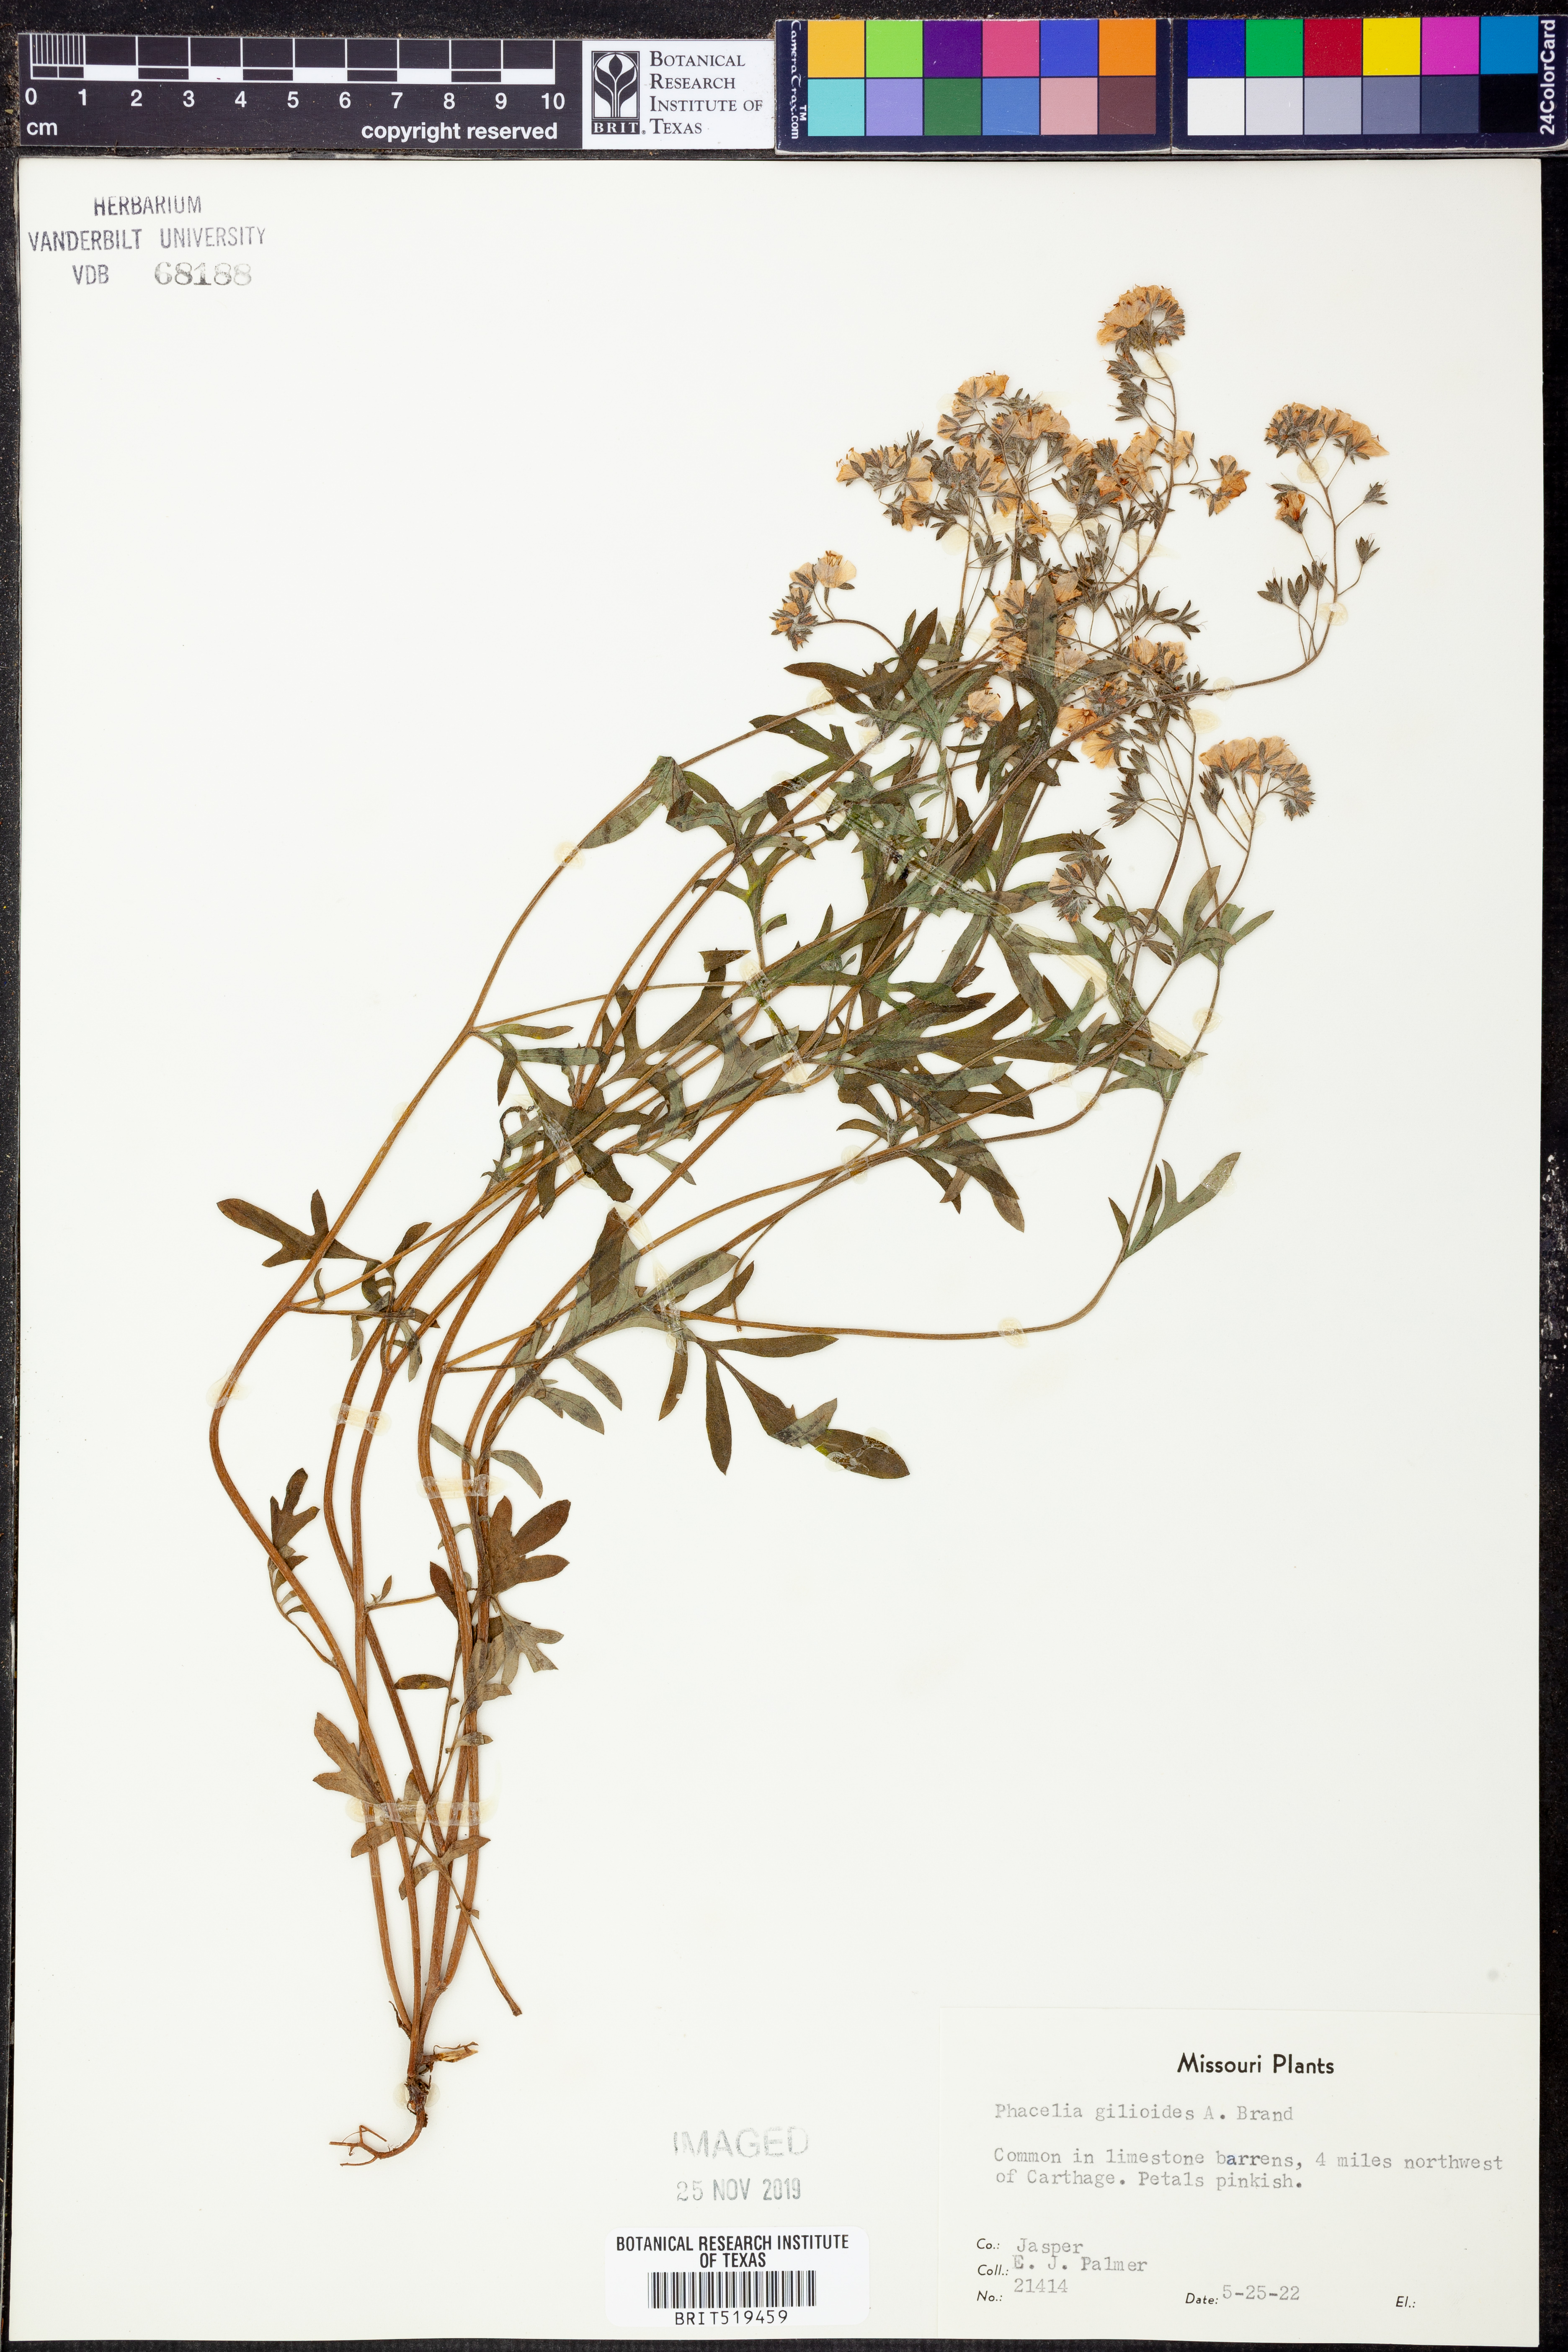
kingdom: Plantae
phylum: Tracheophyta
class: Magnoliopsida
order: Boraginales
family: Hydrophyllaceae
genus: Phacelia
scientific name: Phacelia gilioides
